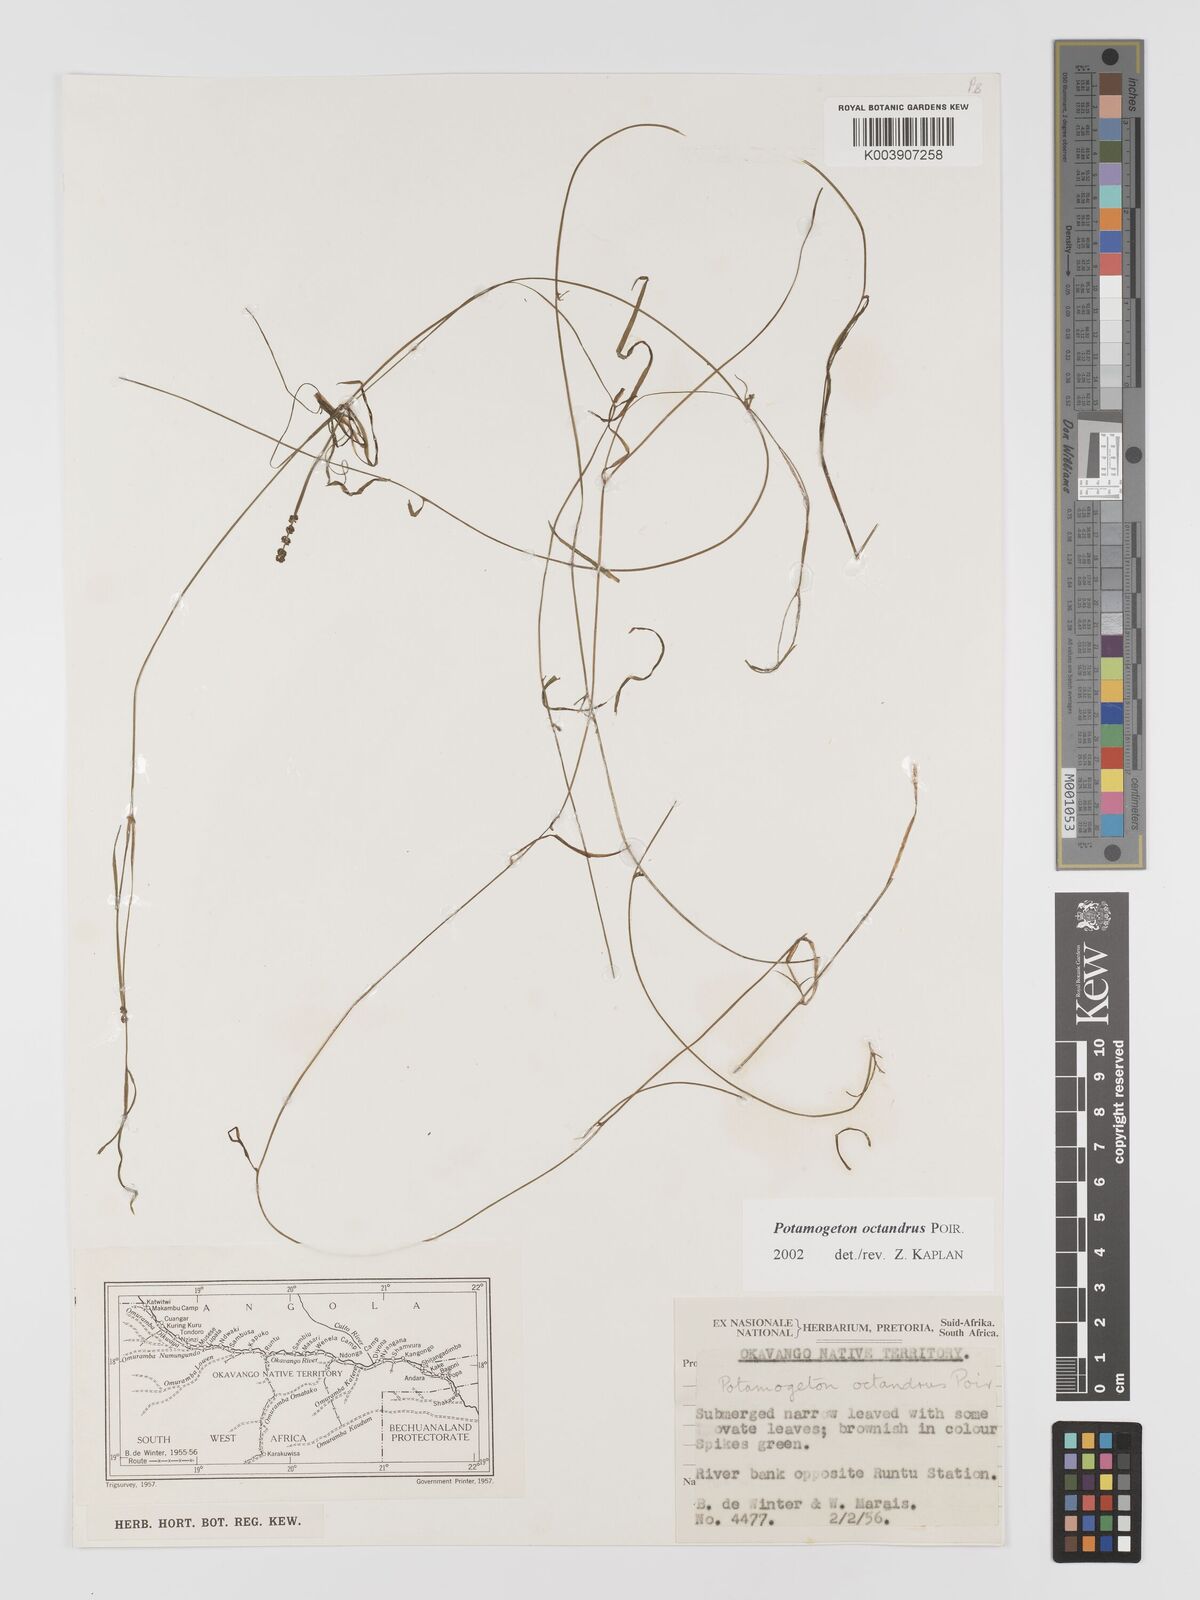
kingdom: Plantae
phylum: Tracheophyta
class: Liliopsida
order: Alismatales
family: Potamogetonaceae
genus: Potamogeton
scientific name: Potamogeton tenuicaulis
